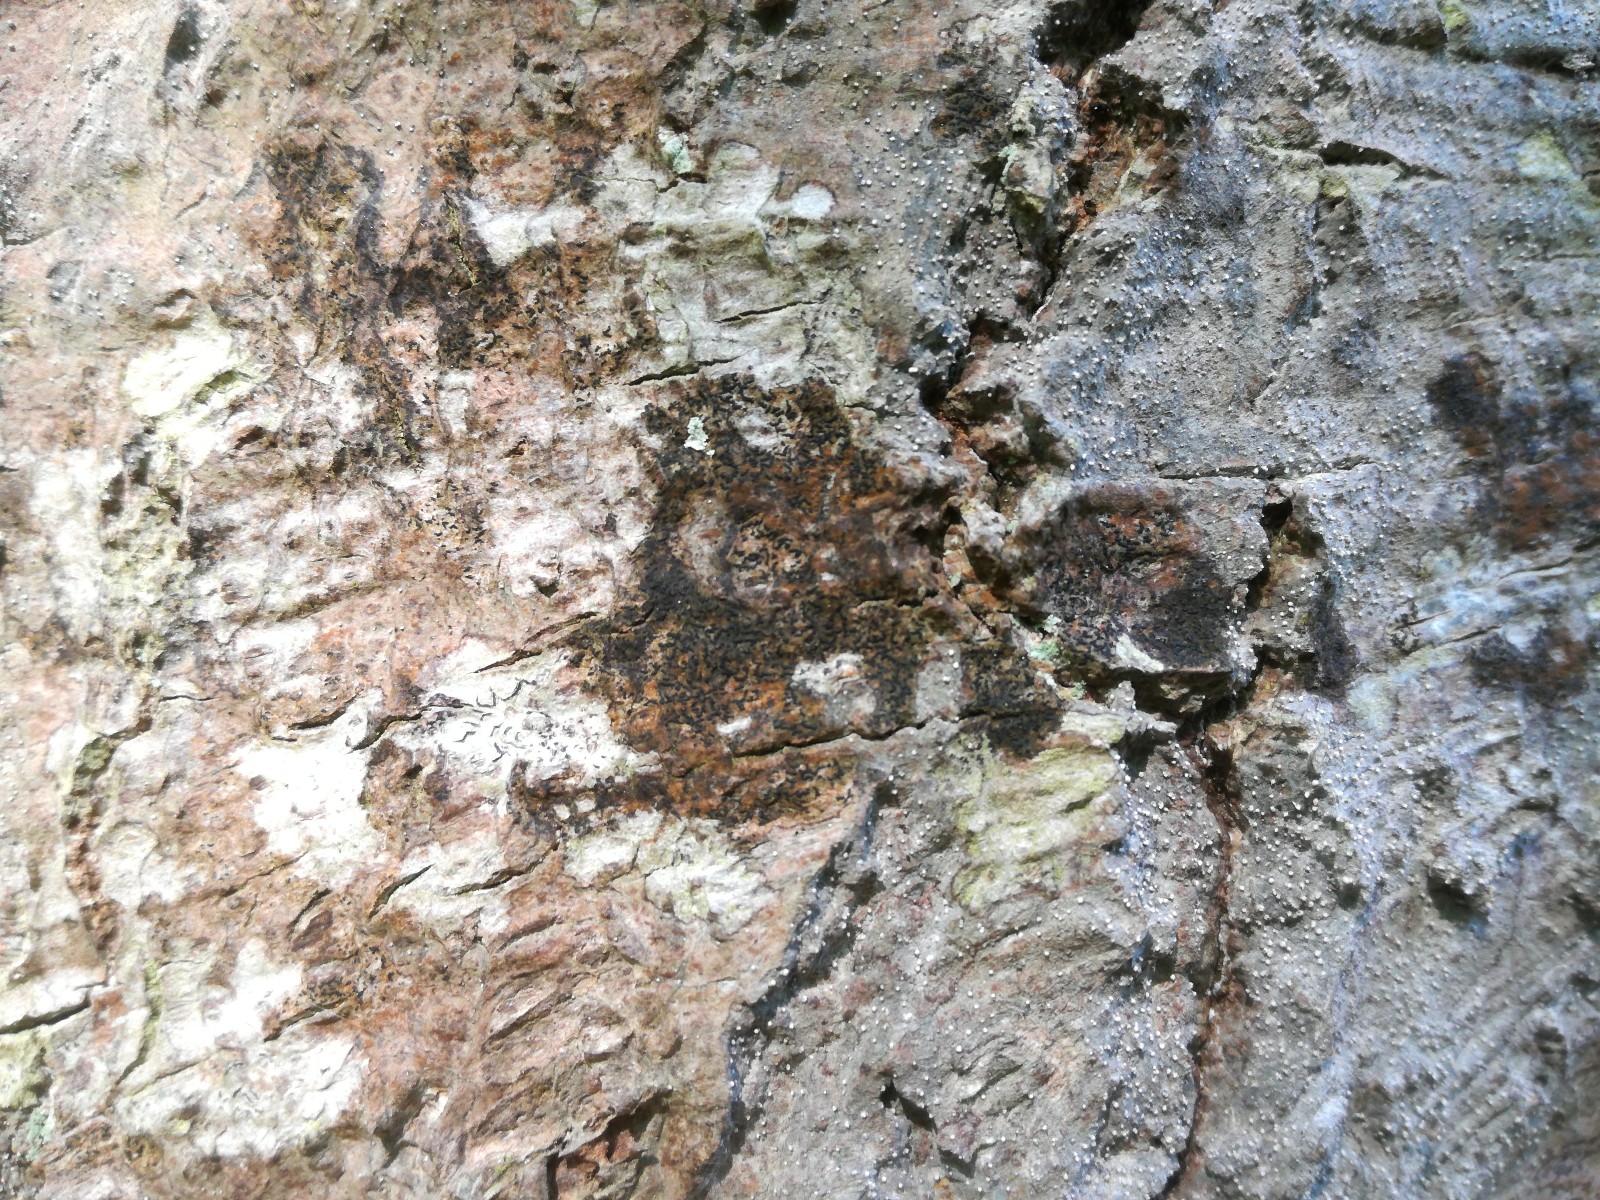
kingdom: Fungi
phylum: Ascomycota
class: Lecanoromycetes
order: Ostropales
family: Graphidaceae
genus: Opegrapha
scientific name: Opegrapha vulgata
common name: oliven-bogstavlav
